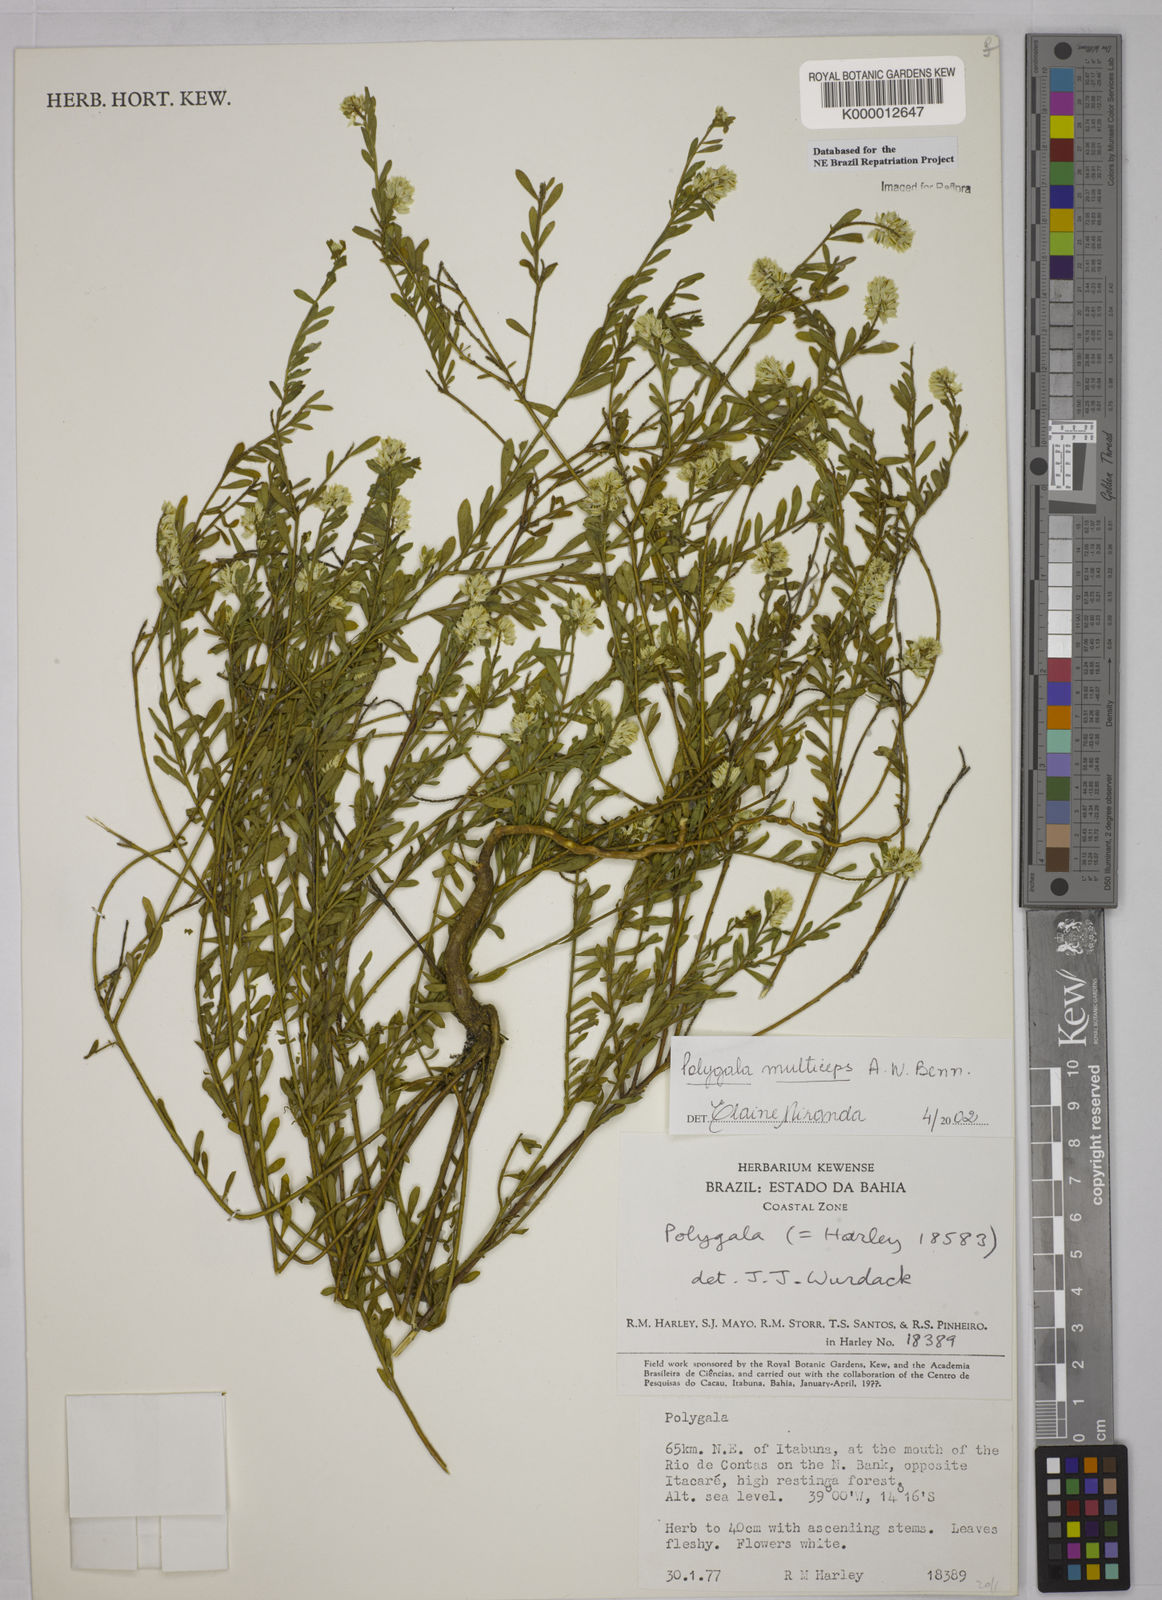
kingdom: Plantae
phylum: Tracheophyta
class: Magnoliopsida
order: Fabales
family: Polygalaceae
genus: Polygala
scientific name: Polygala
